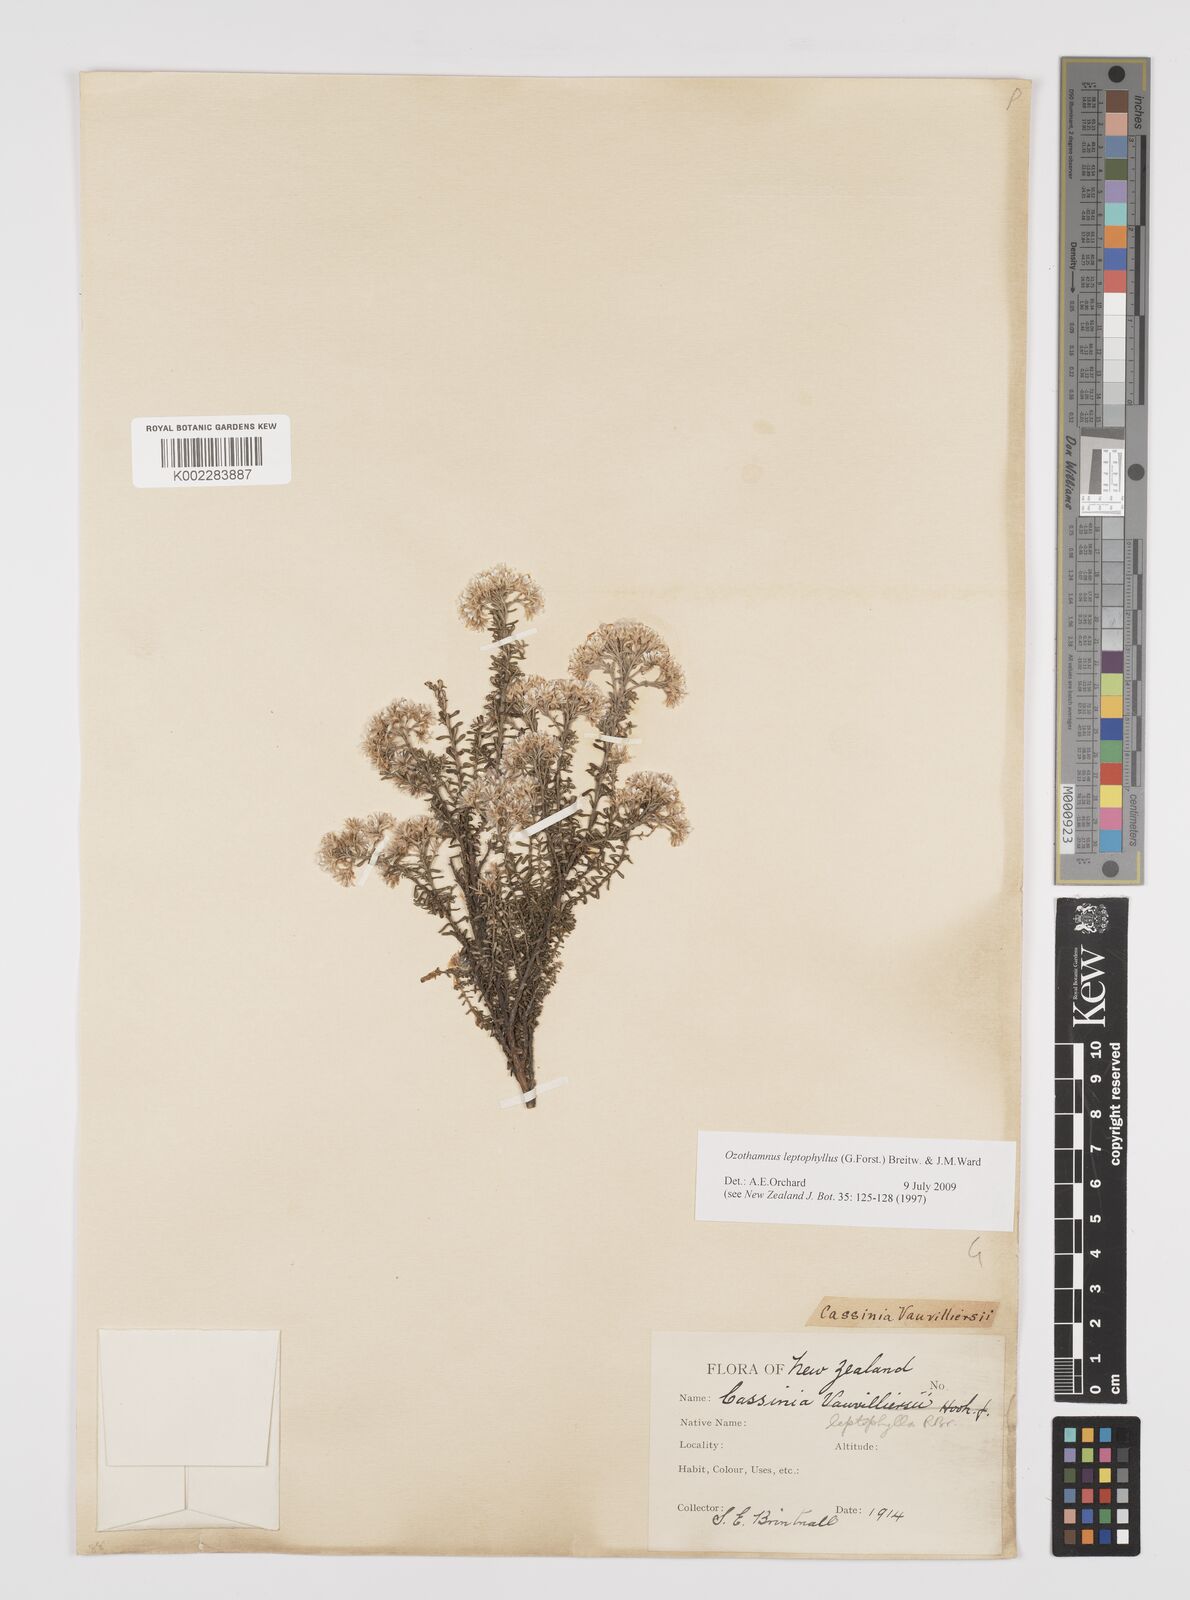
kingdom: Plantae
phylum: Tracheophyta
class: Magnoliopsida
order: Asterales
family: Asteraceae
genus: Ozothamnus
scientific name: Ozothamnus leptophyllus
